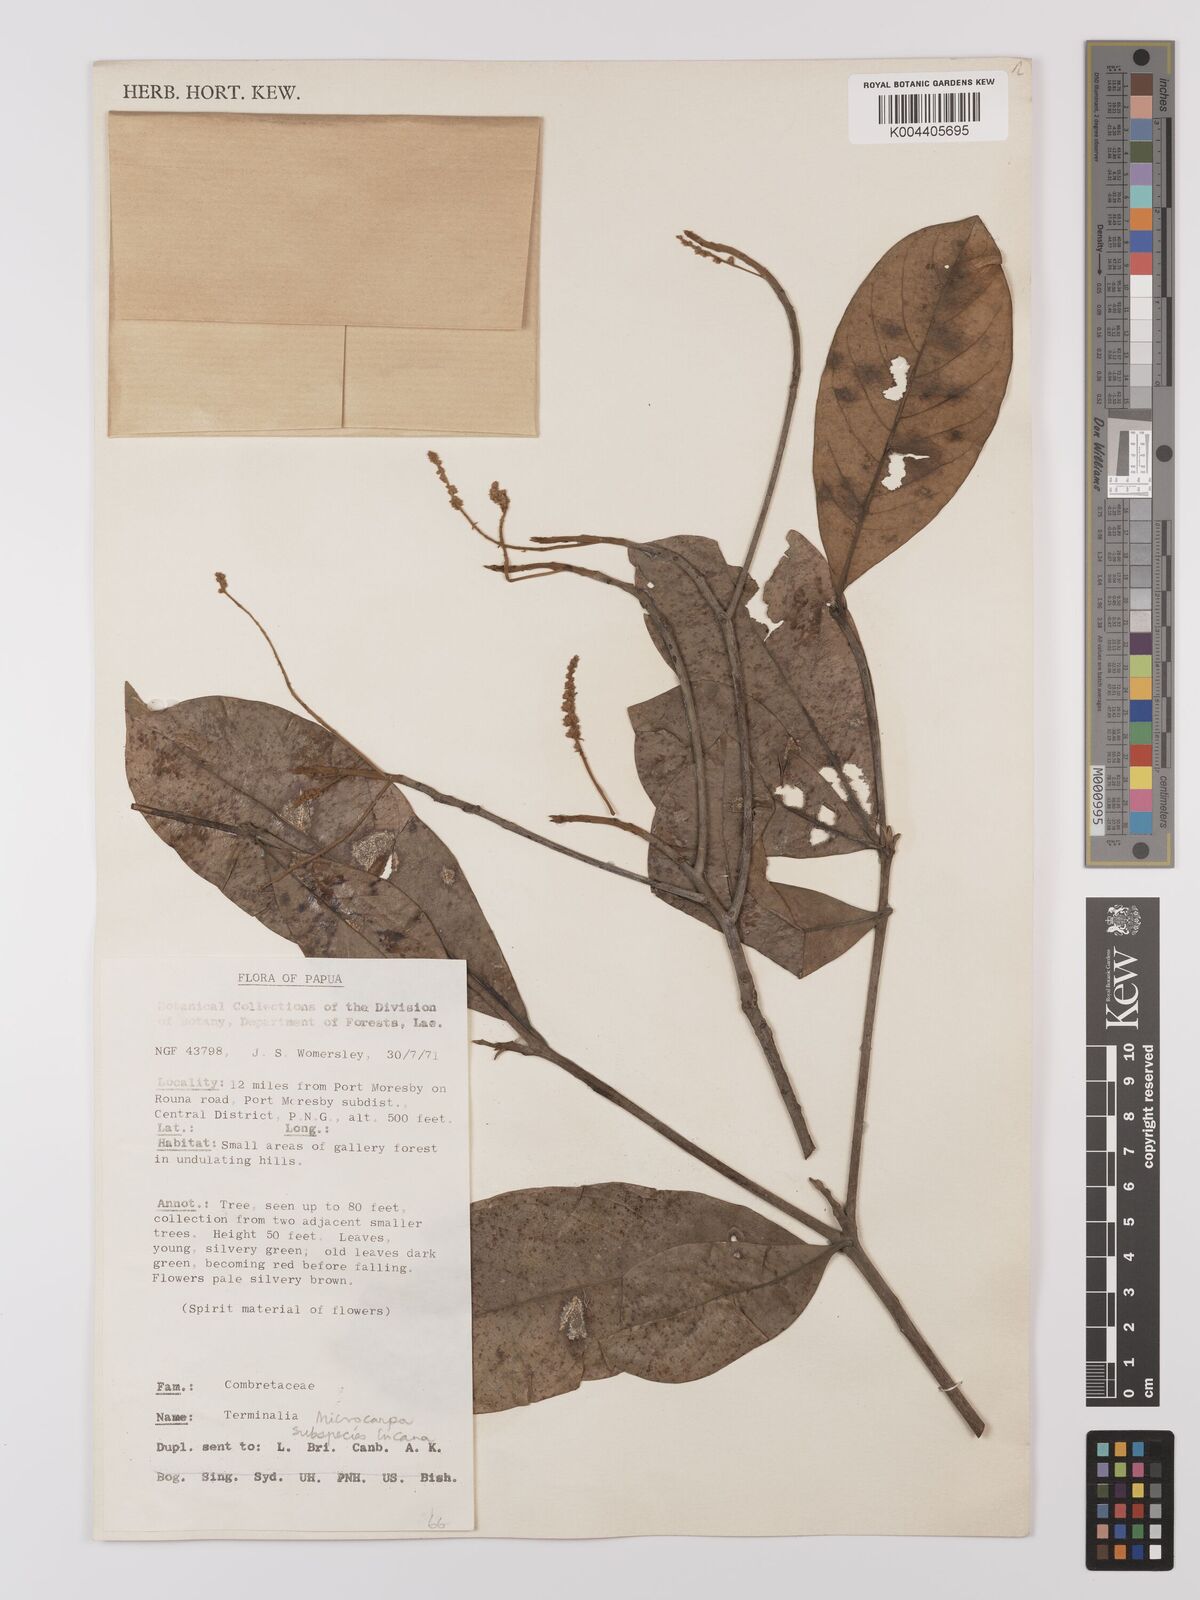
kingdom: Plantae
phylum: Tracheophyta
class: Magnoliopsida
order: Myrtales
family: Combretaceae
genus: Terminalia
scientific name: Terminalia microcarpa
